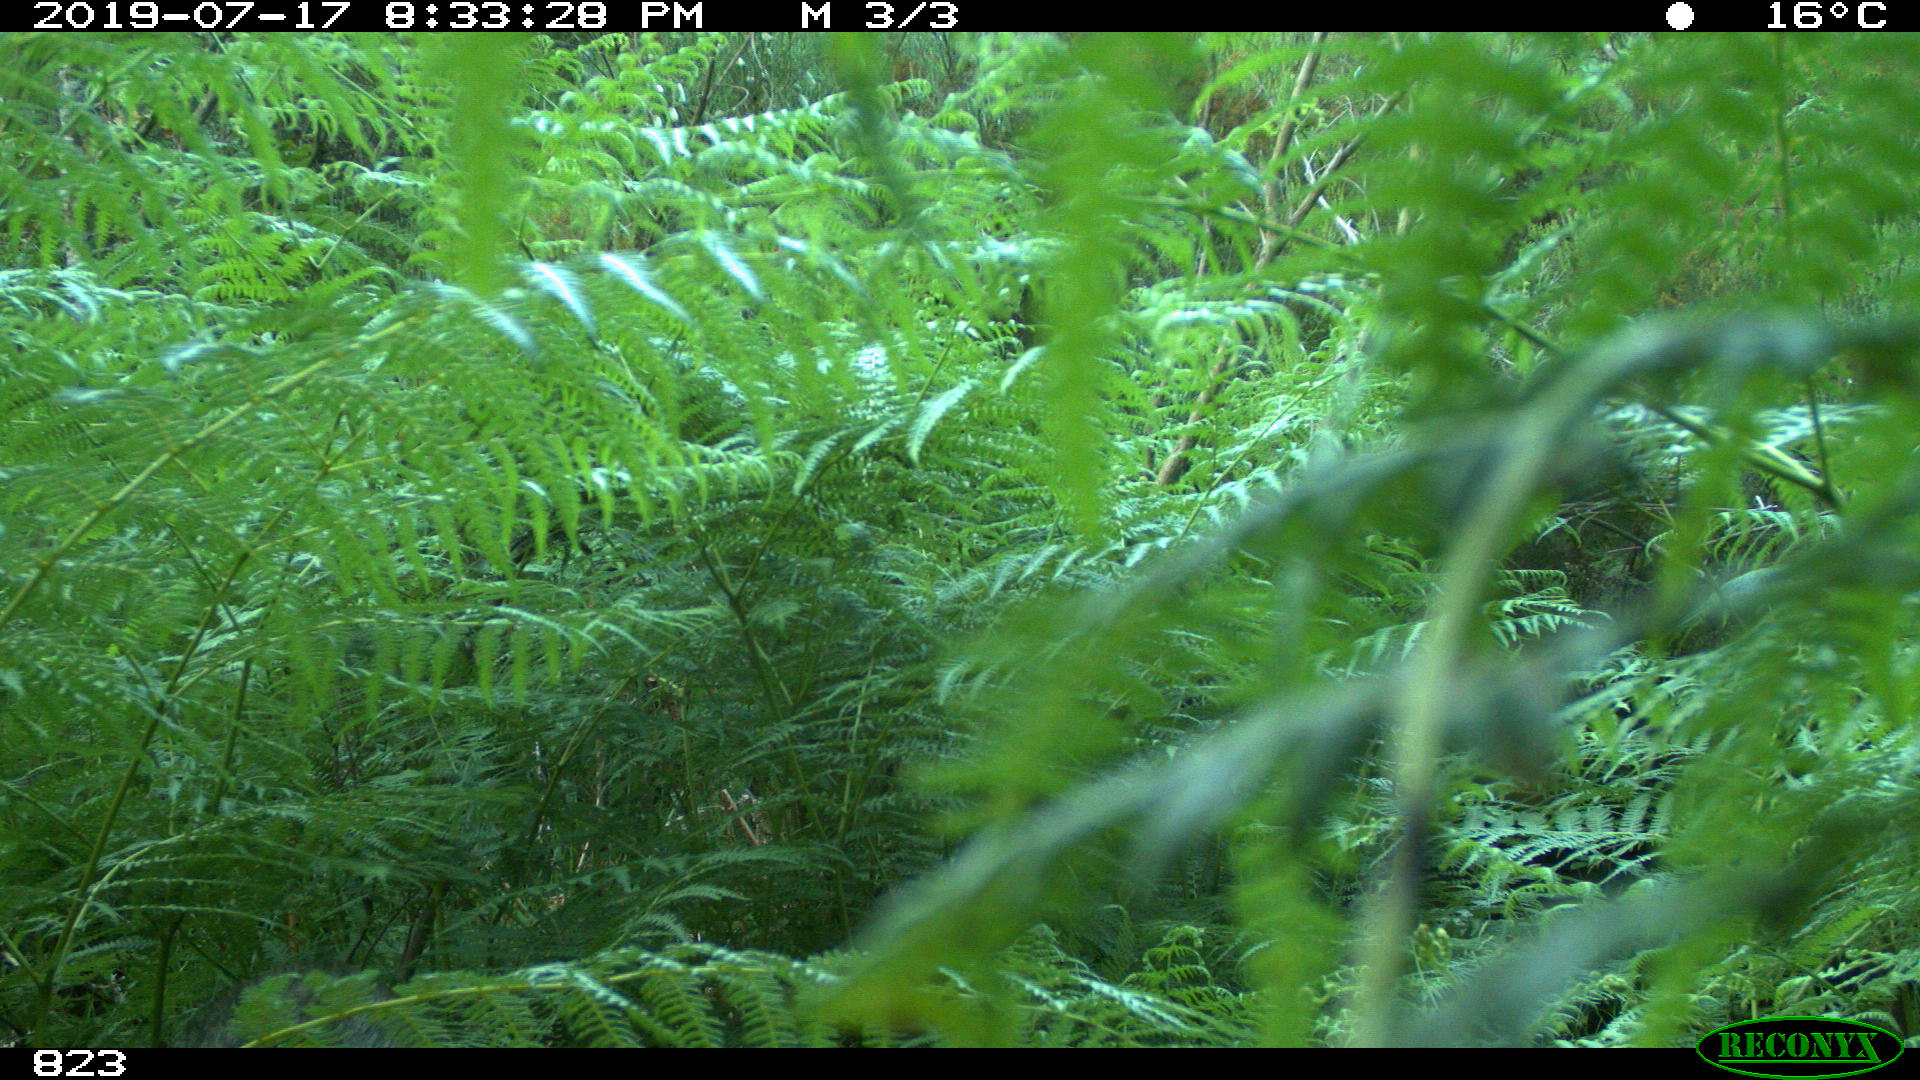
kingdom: Animalia
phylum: Chordata
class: Mammalia
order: Artiodactyla
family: Suidae
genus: Sus
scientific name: Sus scrofa
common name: Wild boar
